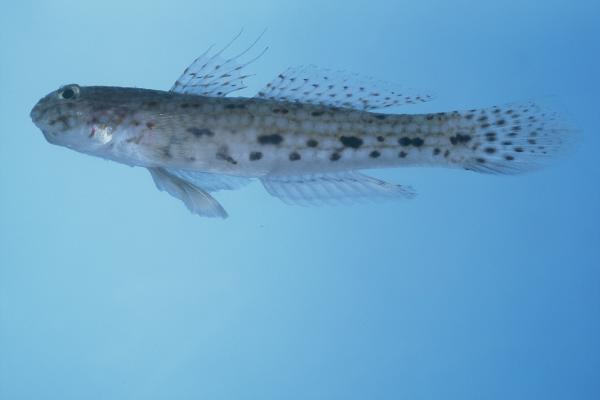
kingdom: Animalia
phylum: Chordata
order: Perciformes
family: Gobiidae
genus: Istigobius
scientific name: Istigobius decoratus
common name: Decorated goby
